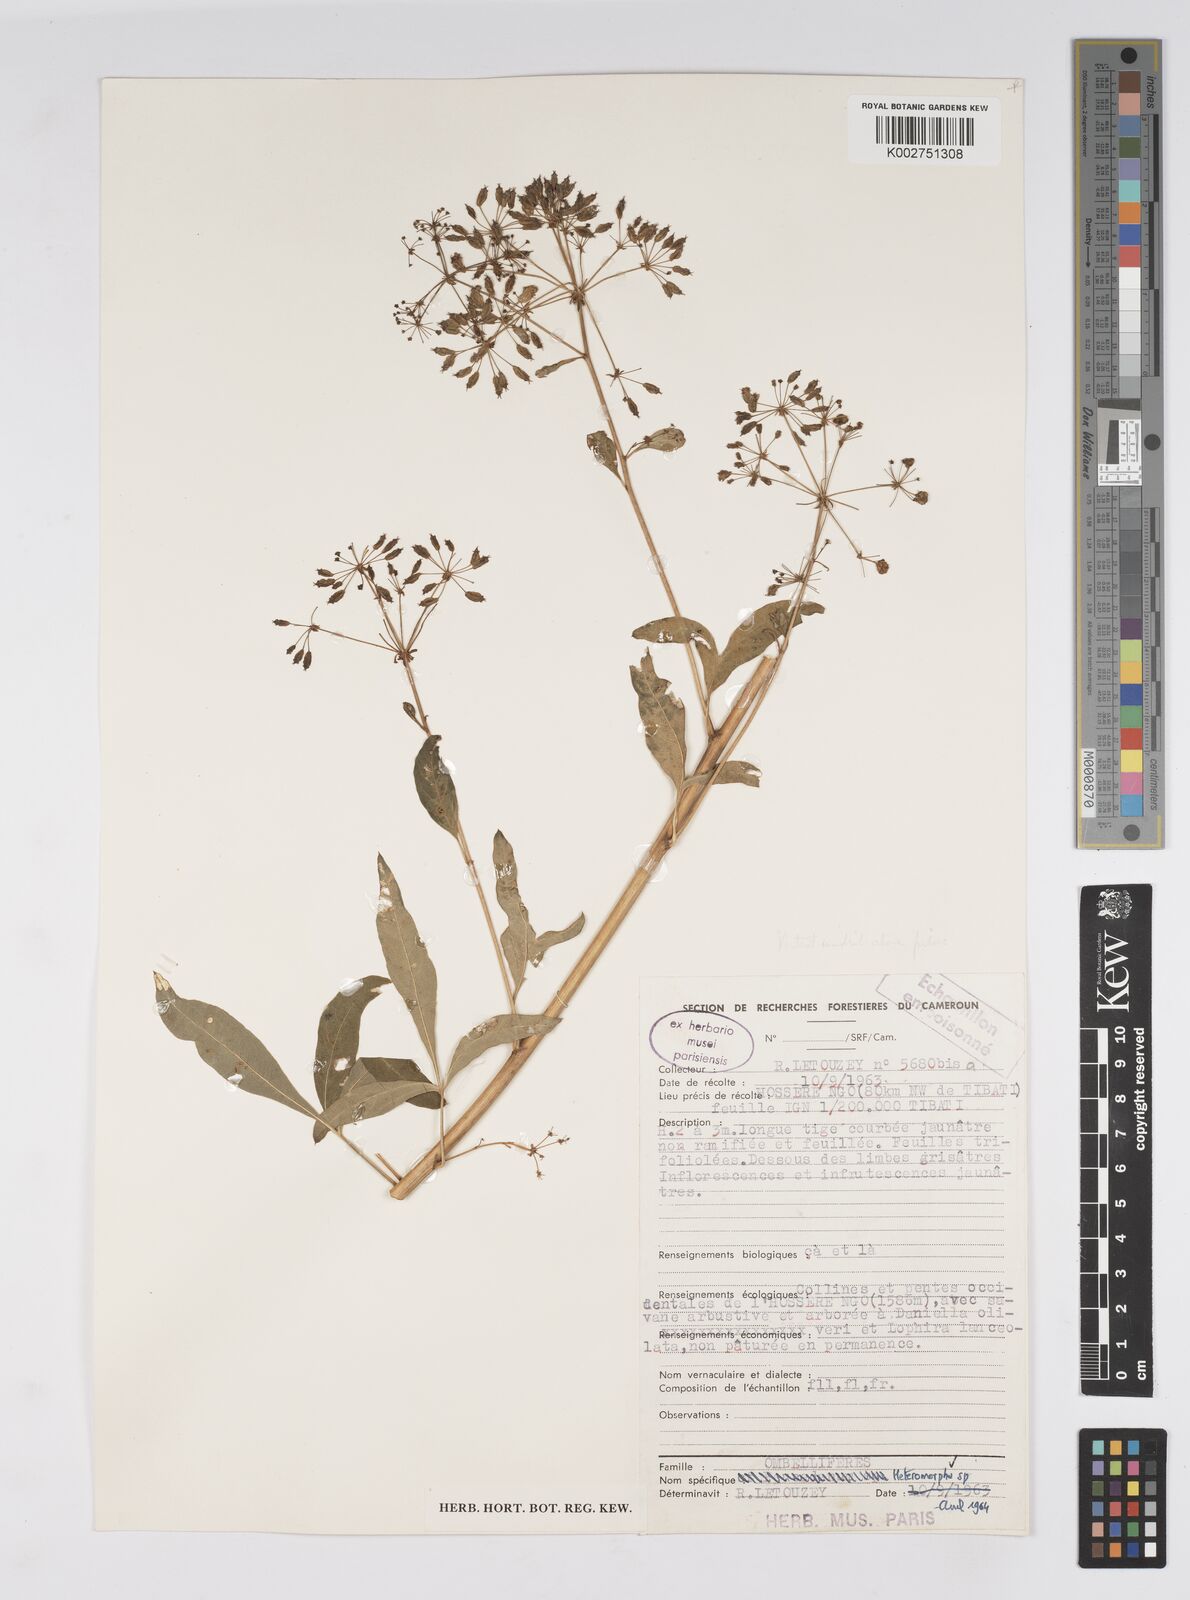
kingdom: Plantae
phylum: Tracheophyta
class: Magnoliopsida
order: Apiales
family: Apiaceae
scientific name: Apiaceae
